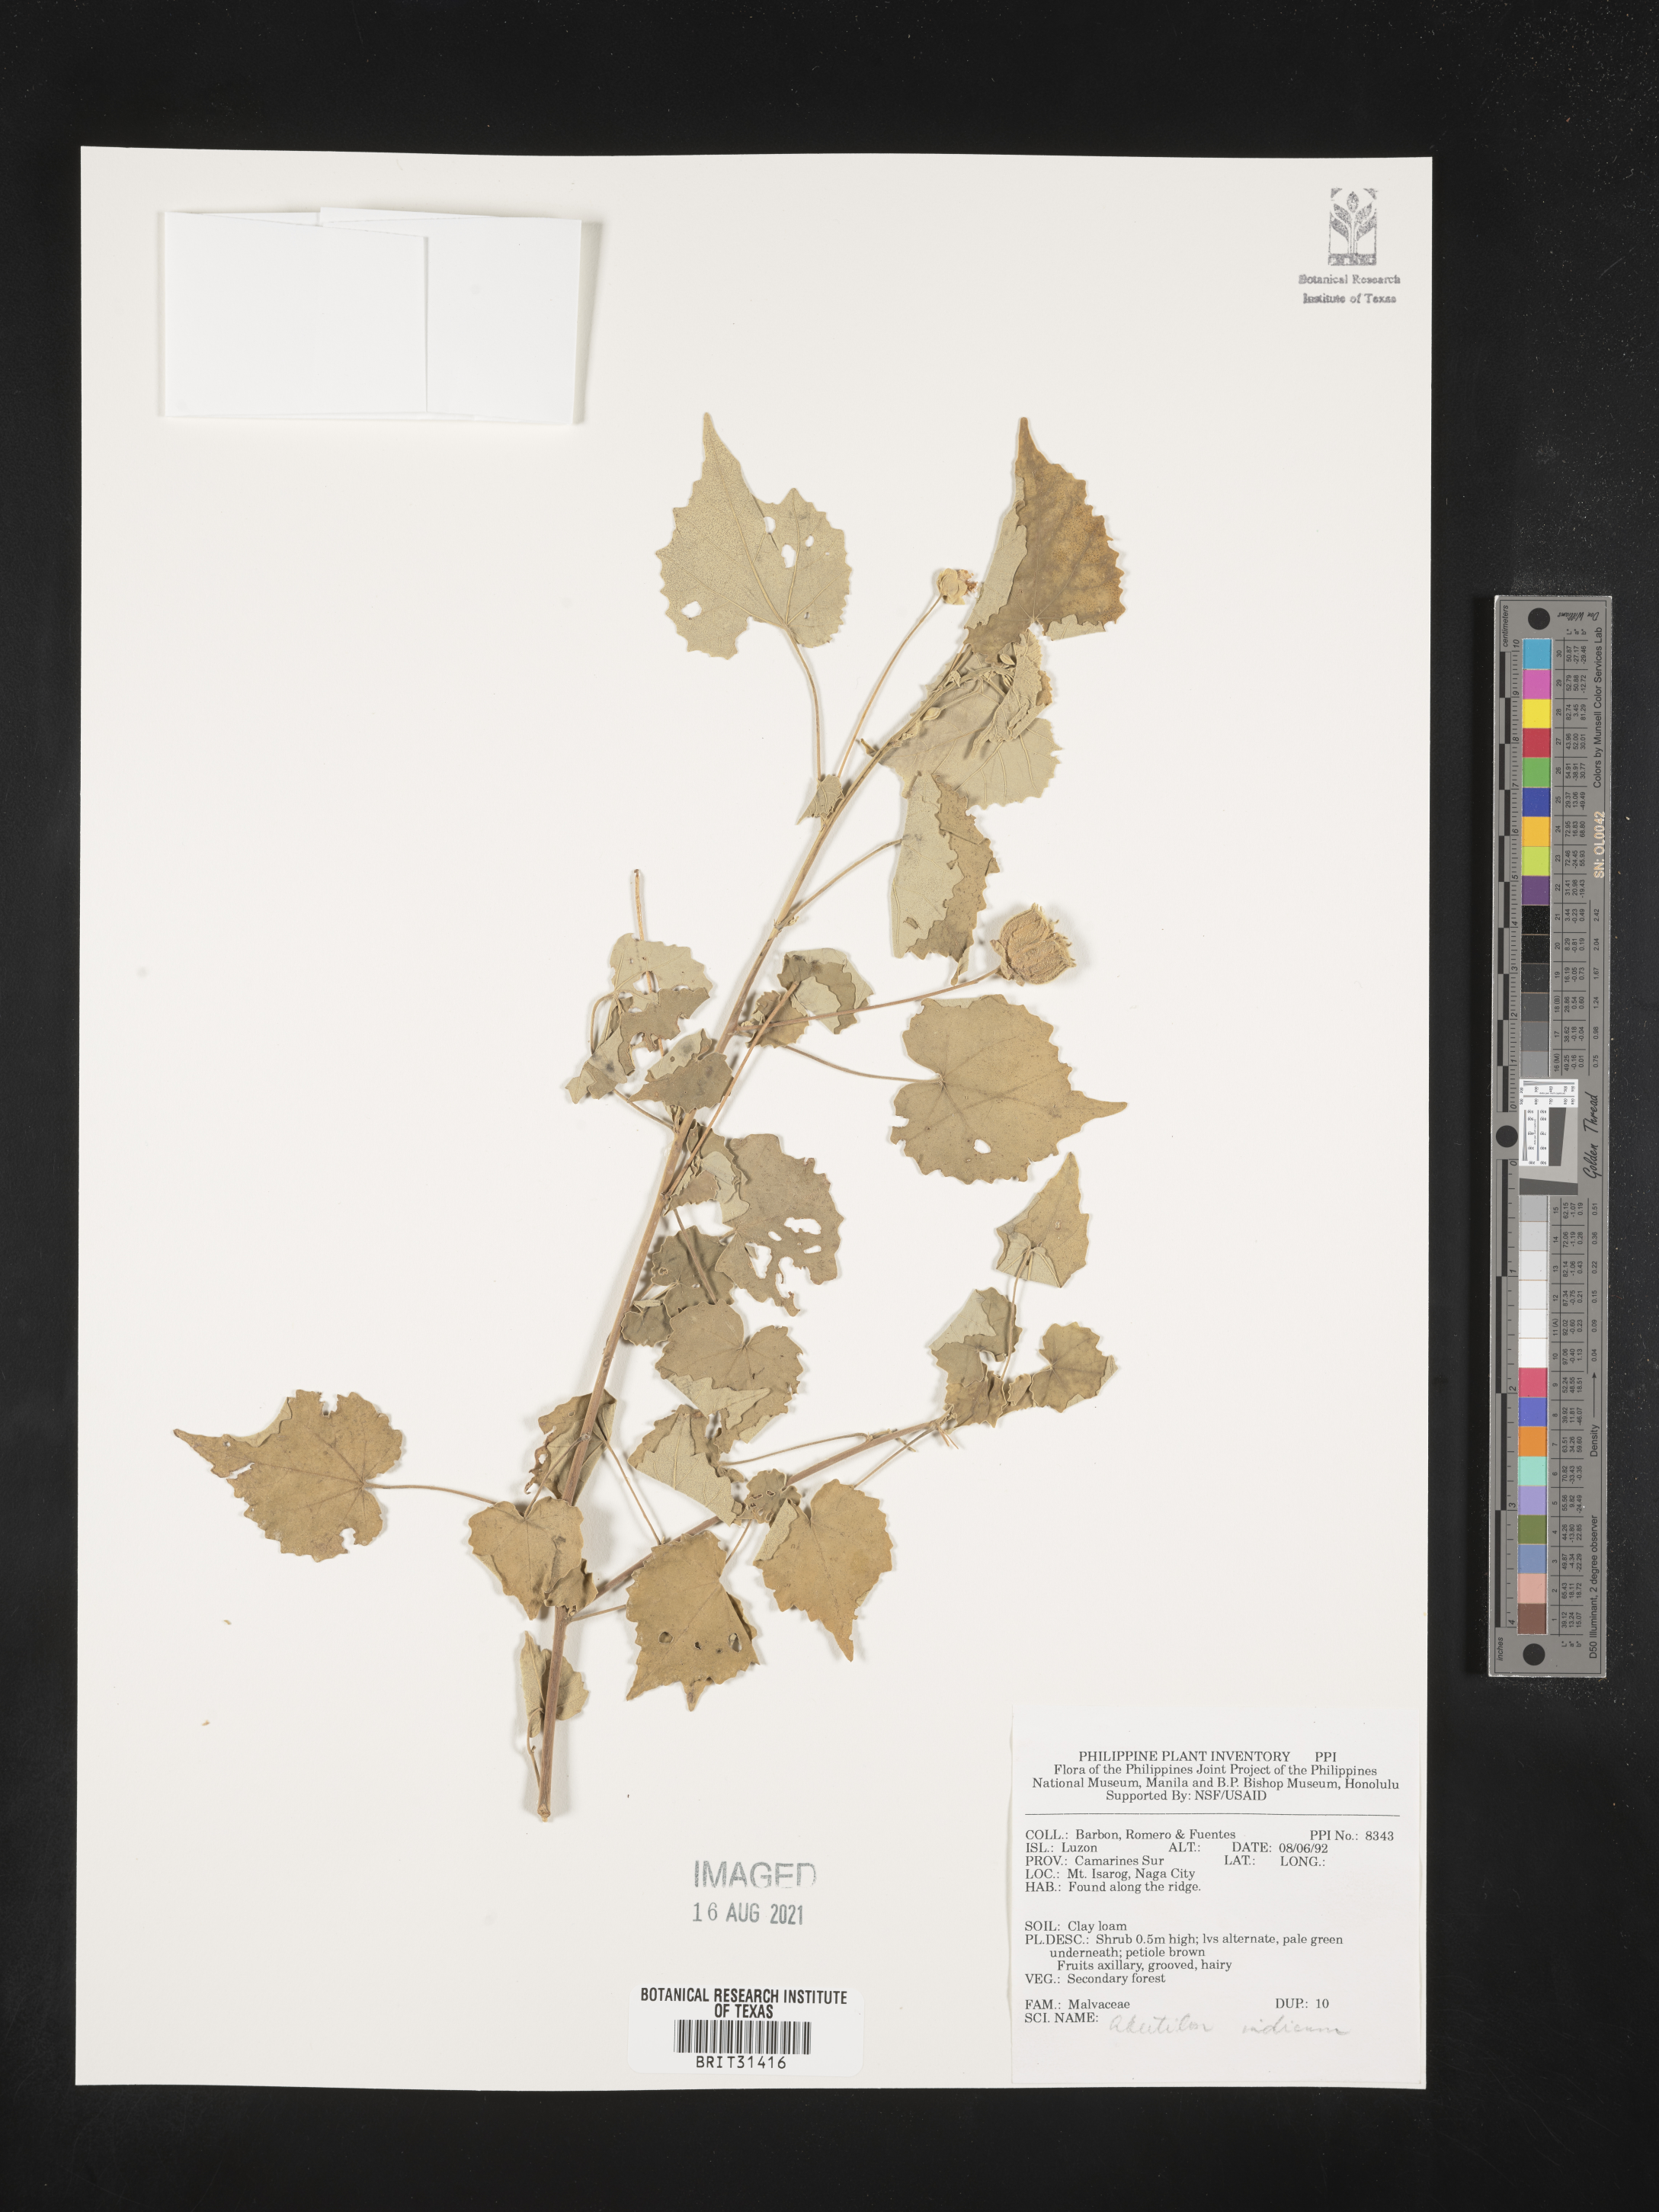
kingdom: Plantae
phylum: Tracheophyta
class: Magnoliopsida
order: Malvales
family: Malvaceae
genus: Abutilon
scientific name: Abutilon indicum
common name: Indian abutilon
